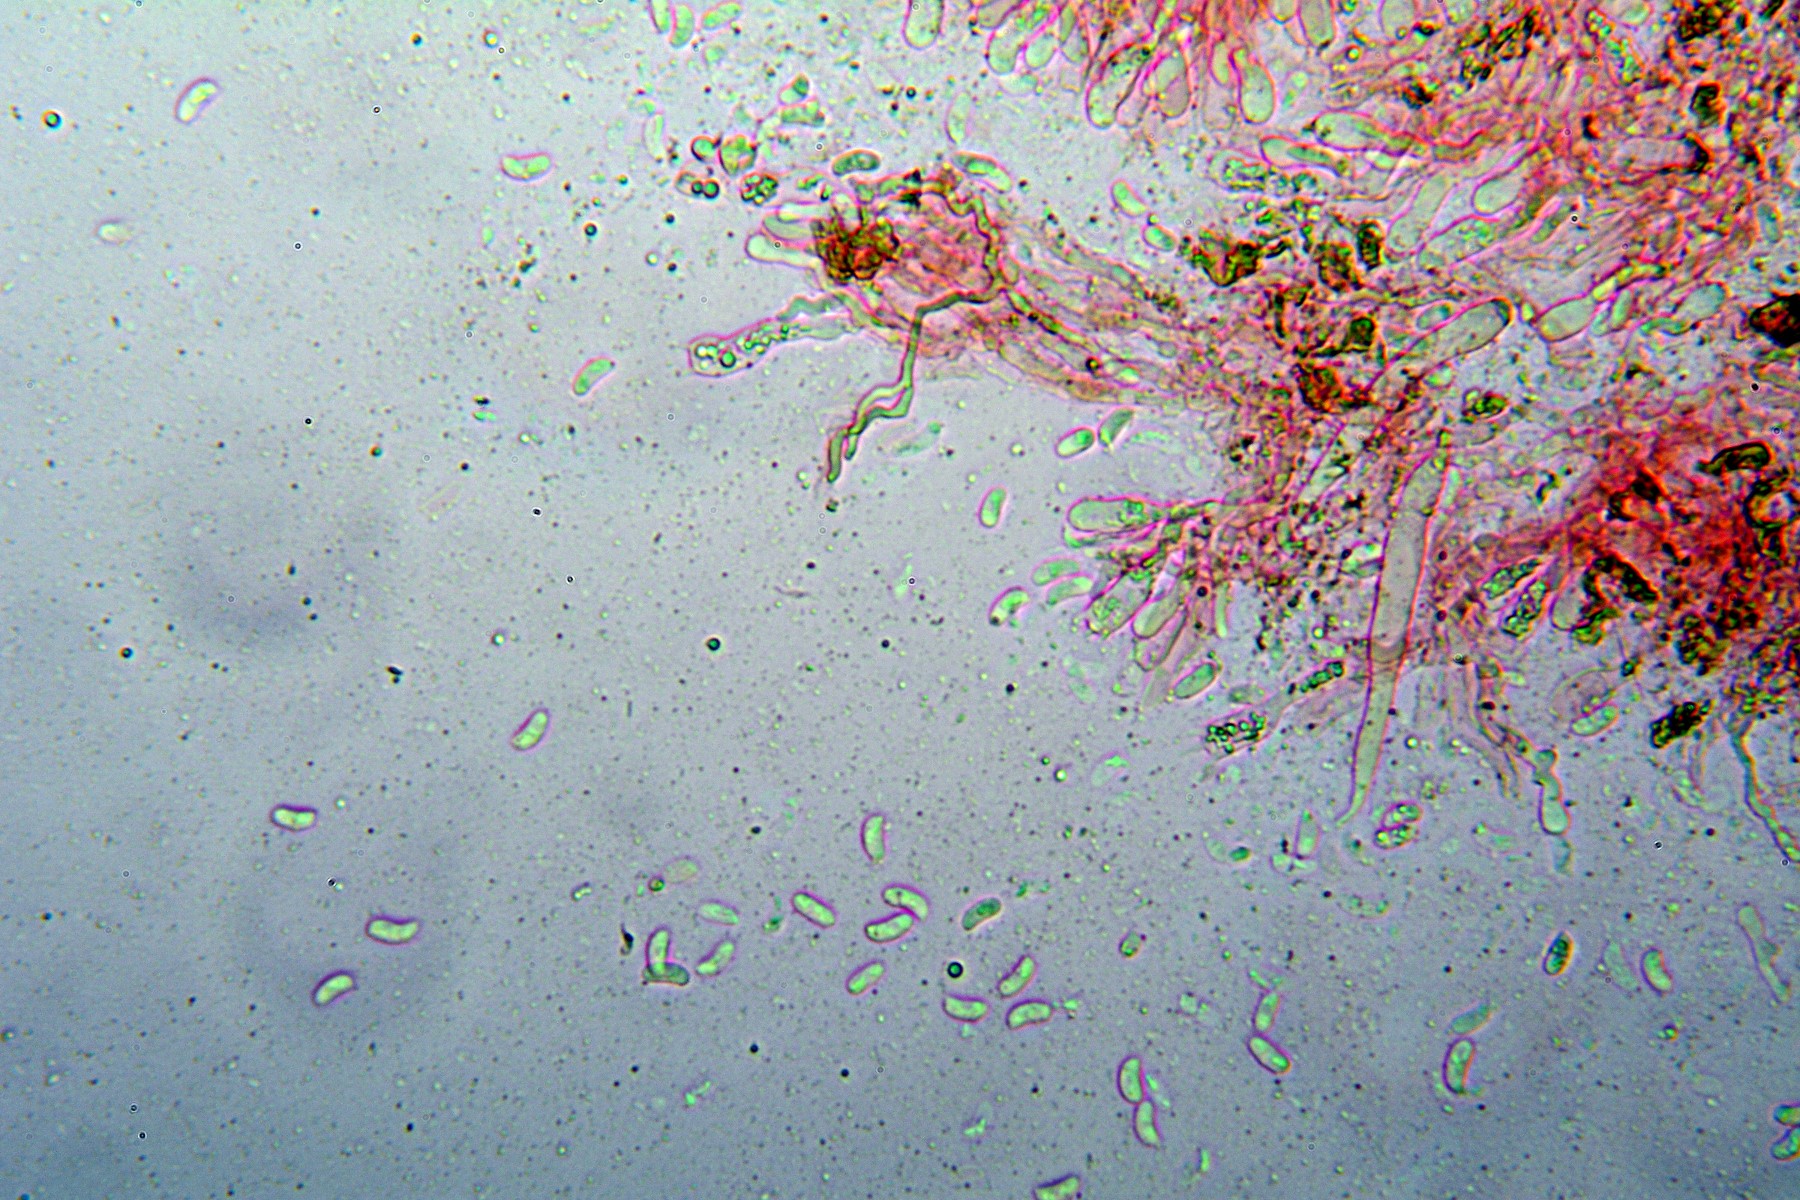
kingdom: Fungi
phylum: Basidiomycota
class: Agaricomycetes
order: Hymenochaetales
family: Rickenellaceae
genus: Peniophorella
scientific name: Peniophorella pallida
